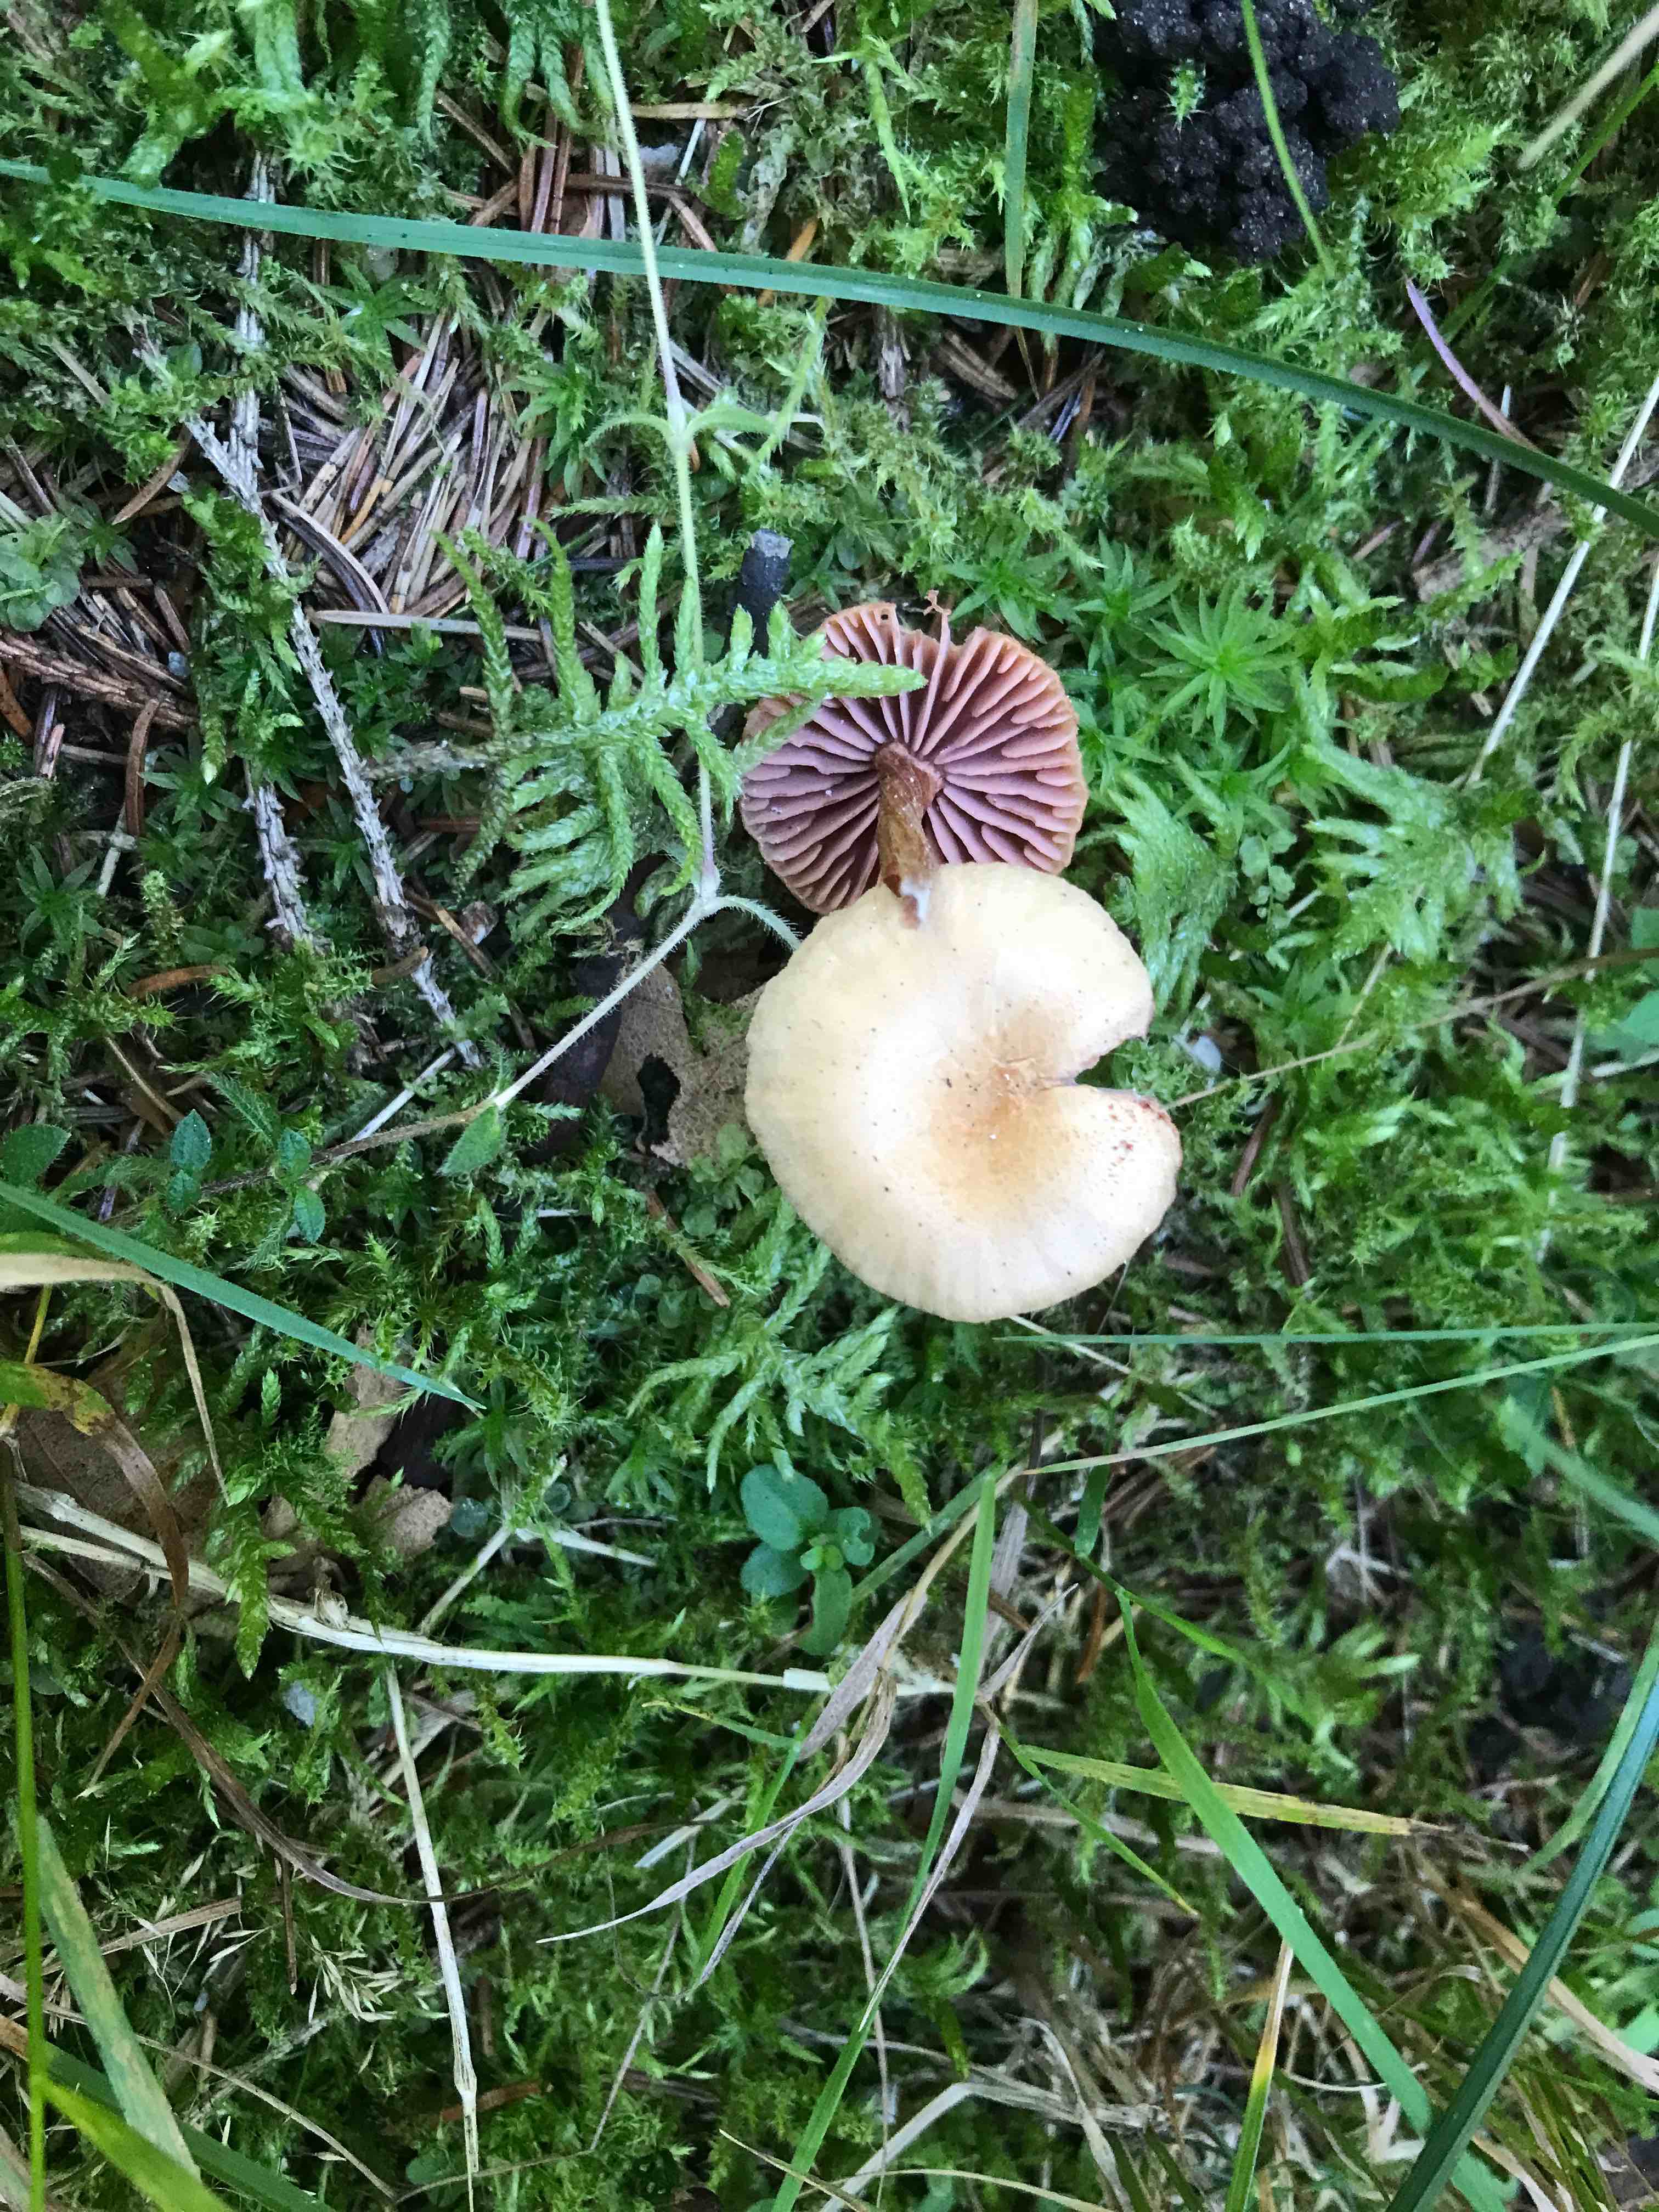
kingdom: Fungi
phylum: Basidiomycota
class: Agaricomycetes
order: Agaricales
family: Hydnangiaceae
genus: Laccaria
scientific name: Laccaria
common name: ametysthat
